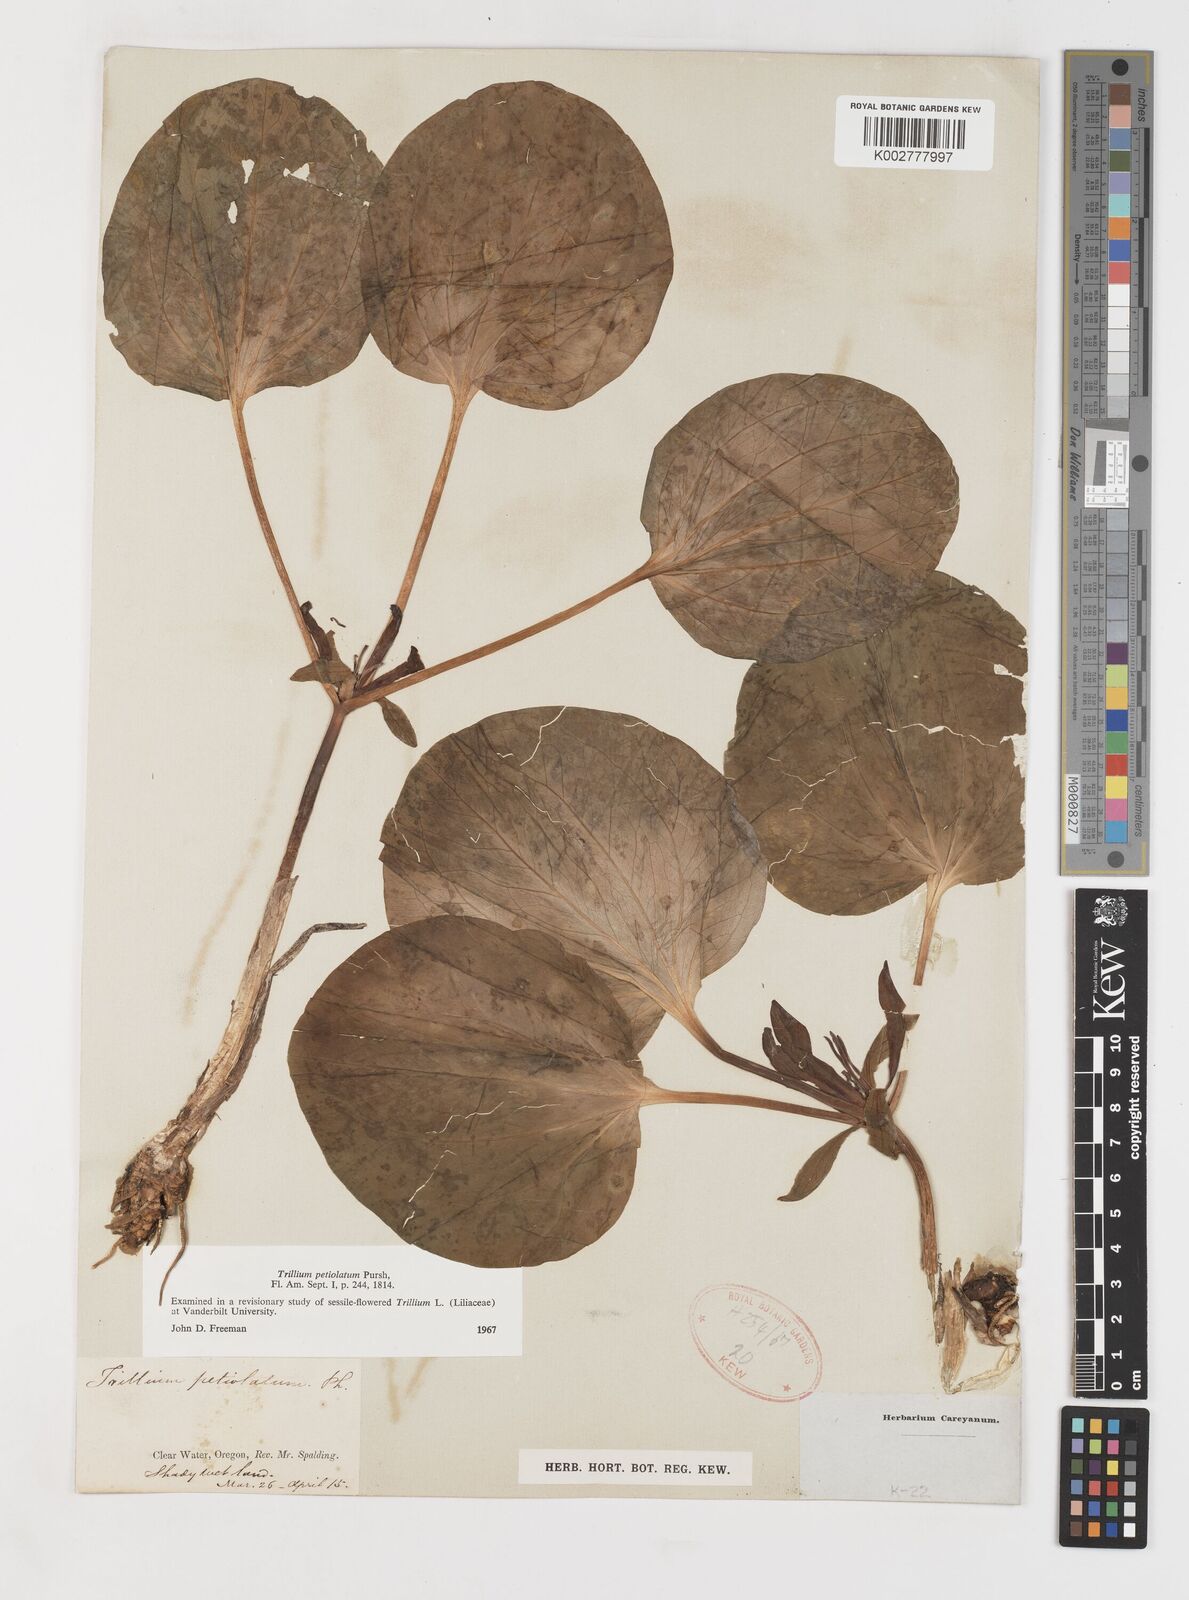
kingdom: Plantae
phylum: Tracheophyta
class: Liliopsida
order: Liliales
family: Melanthiaceae
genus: Trillium
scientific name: Trillium petiolatum
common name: Idaho trillium
